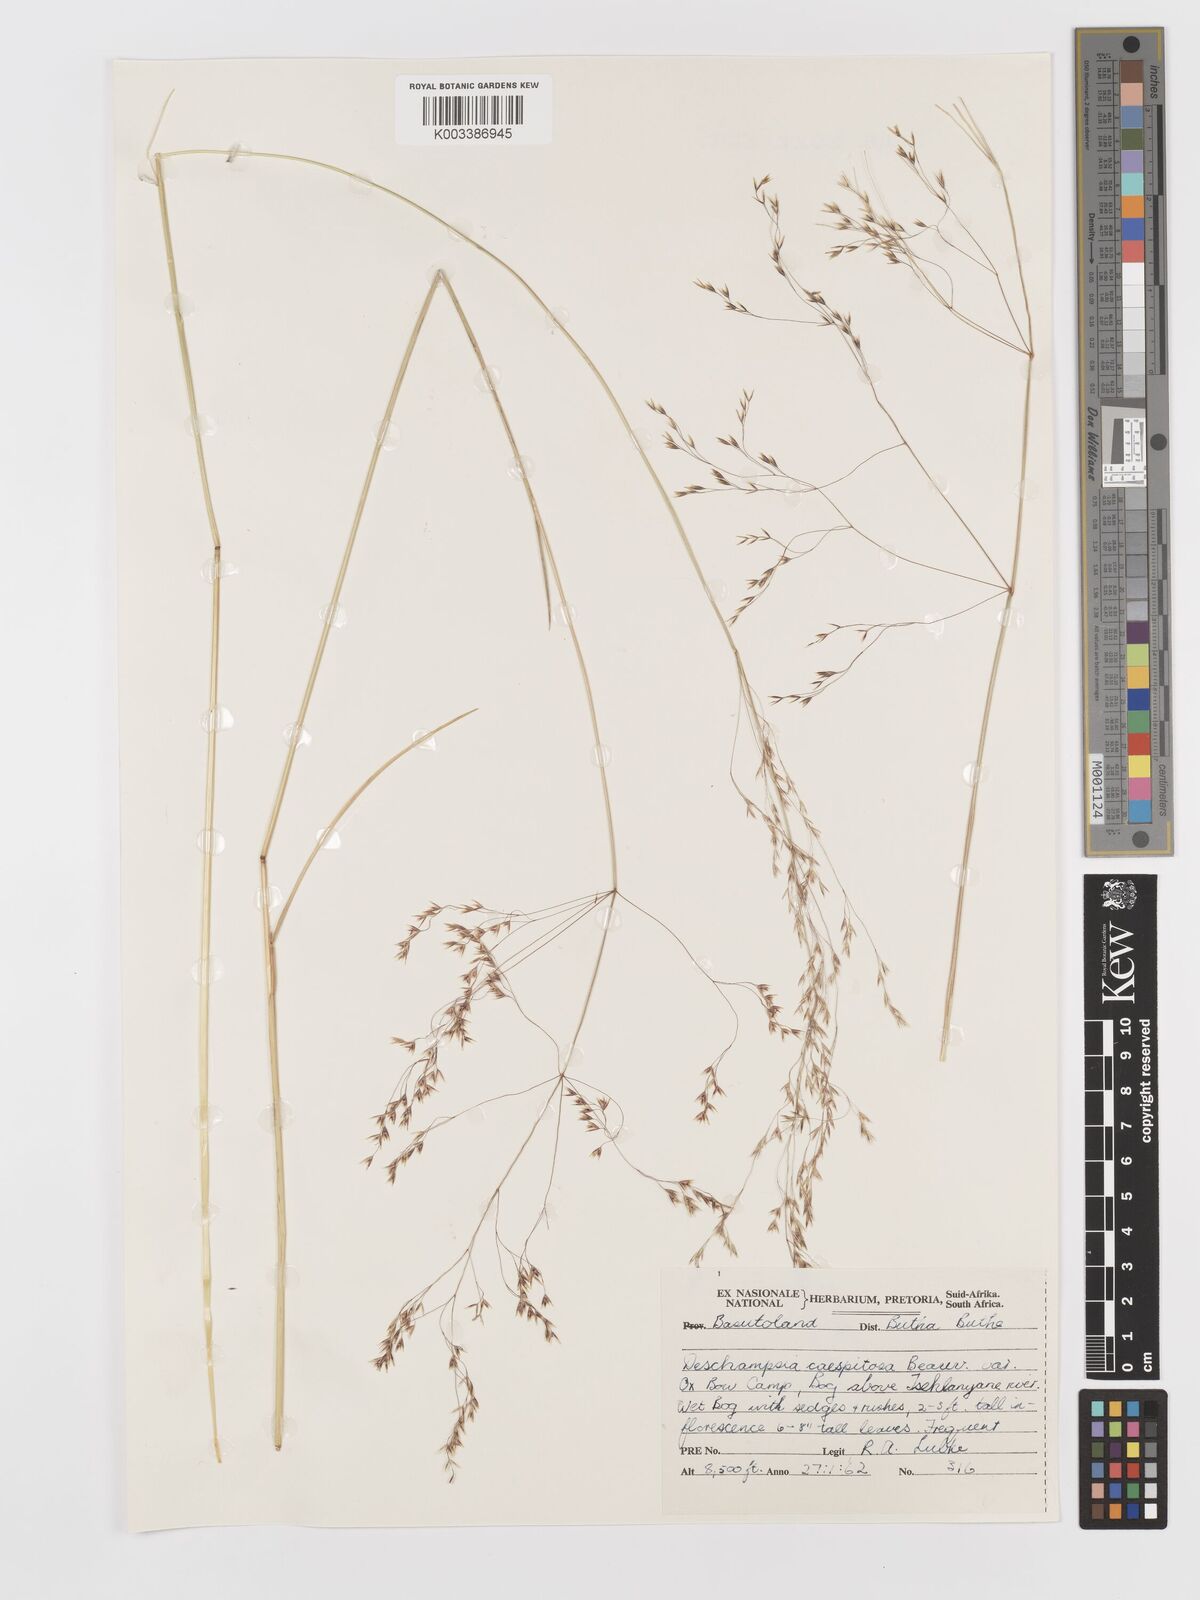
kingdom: Plantae
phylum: Tracheophyta
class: Liliopsida
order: Poales
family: Poaceae
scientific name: Poaceae
